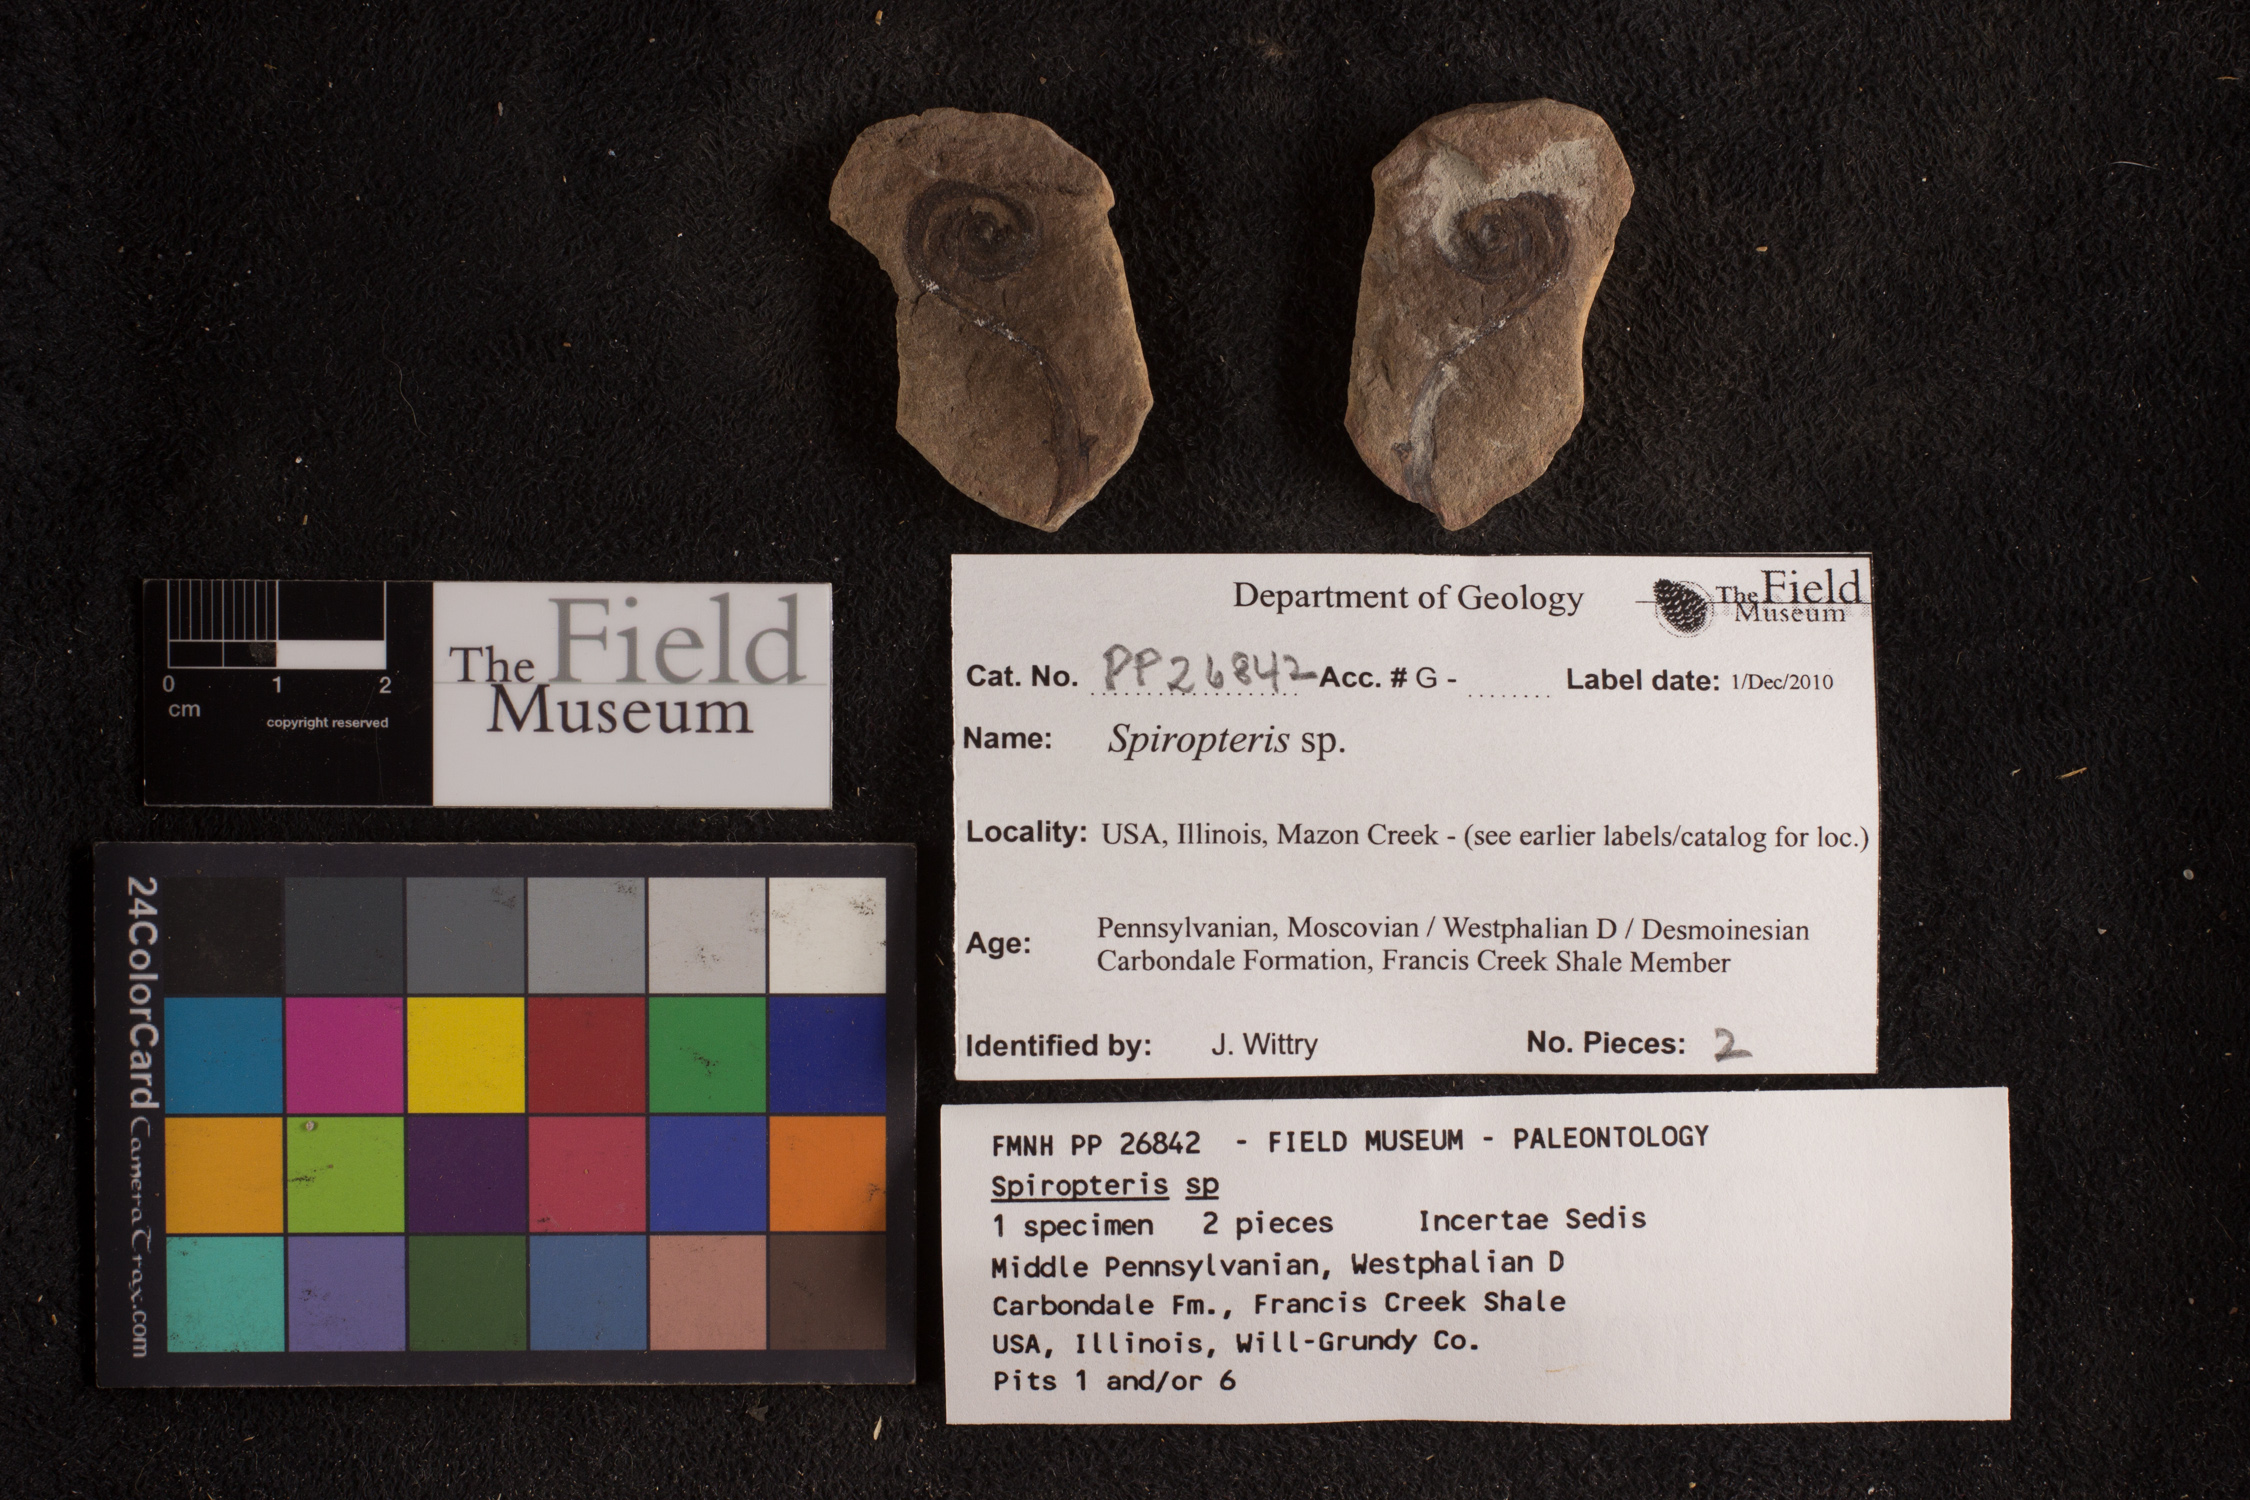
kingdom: Plantae
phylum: Tracheophyta
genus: Spiropteris
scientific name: Spiropteris
